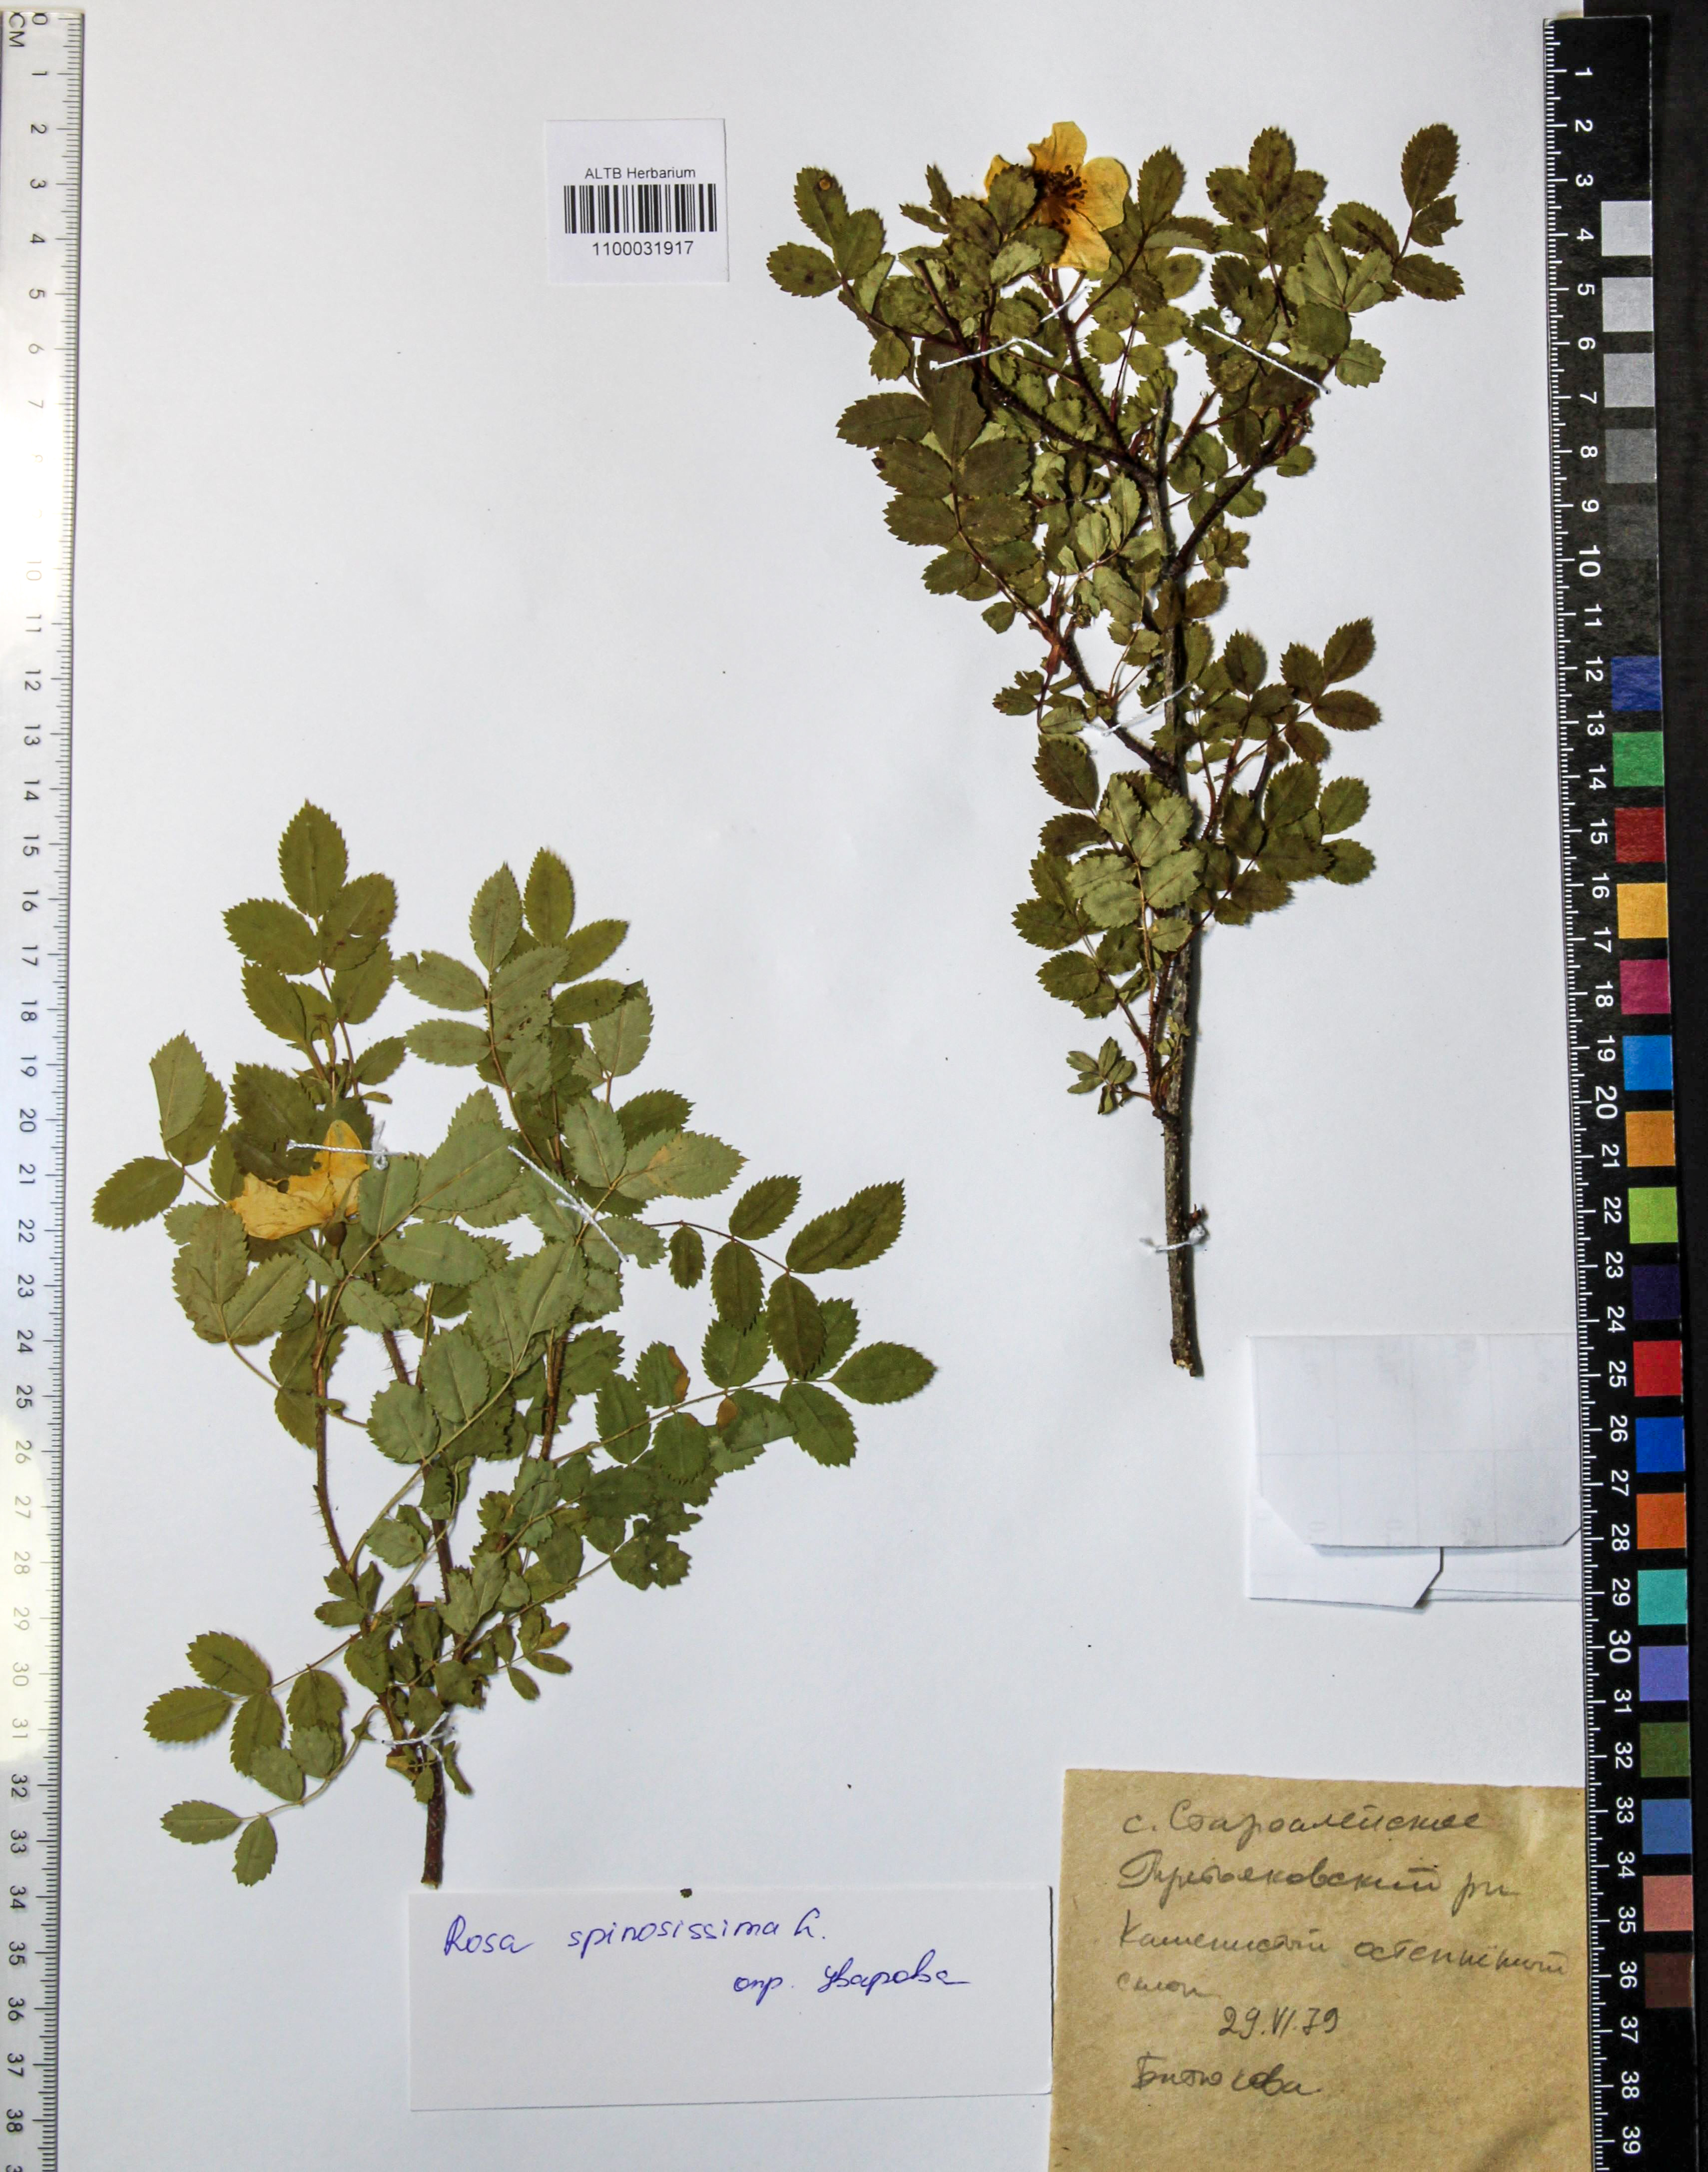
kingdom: Plantae
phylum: Tracheophyta
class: Magnoliopsida
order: Rosales
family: Rosaceae
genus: Rosa
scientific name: Rosa spinosissima
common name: Burnet rose
